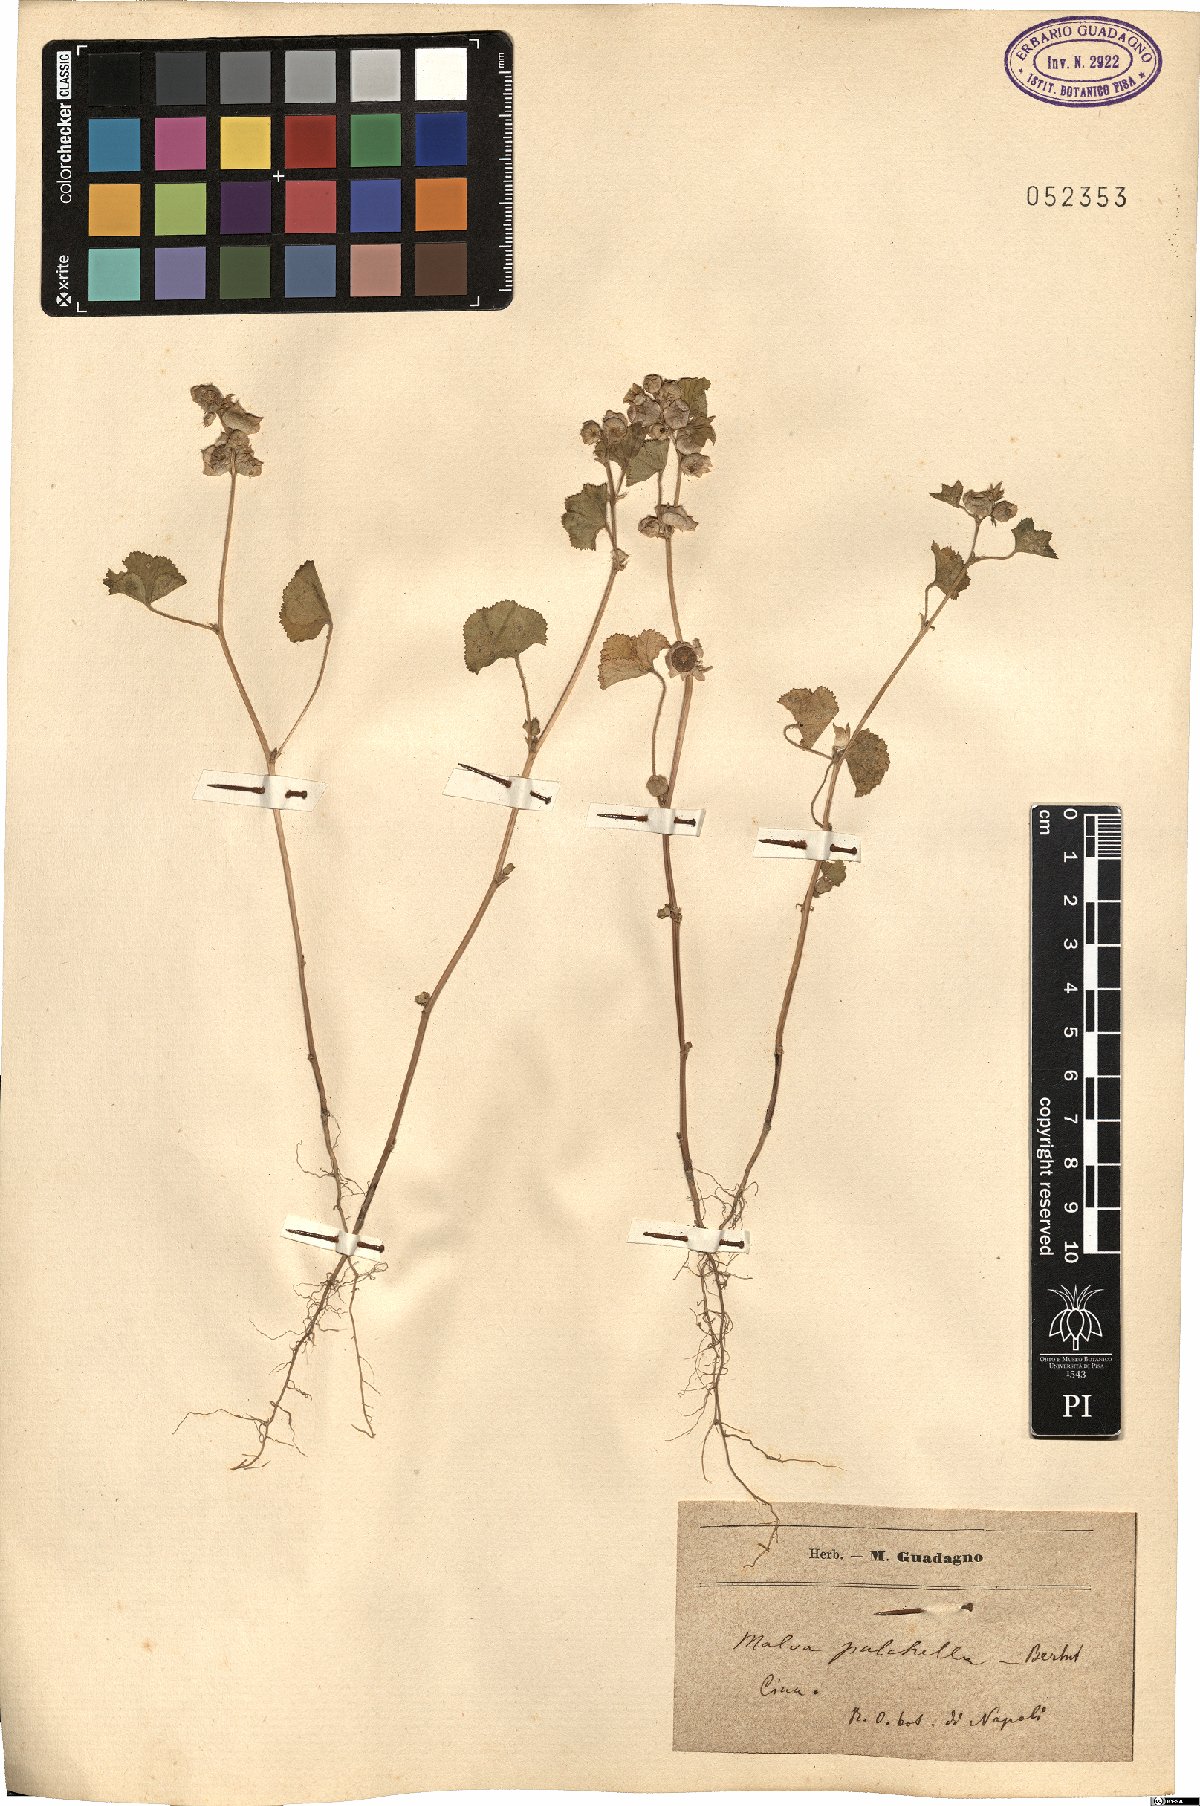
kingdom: Plantae
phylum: Tracheophyta
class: Magnoliopsida
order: Malvales
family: Malvaceae
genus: Malva
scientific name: Malva verticillata
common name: Chinese mallow
